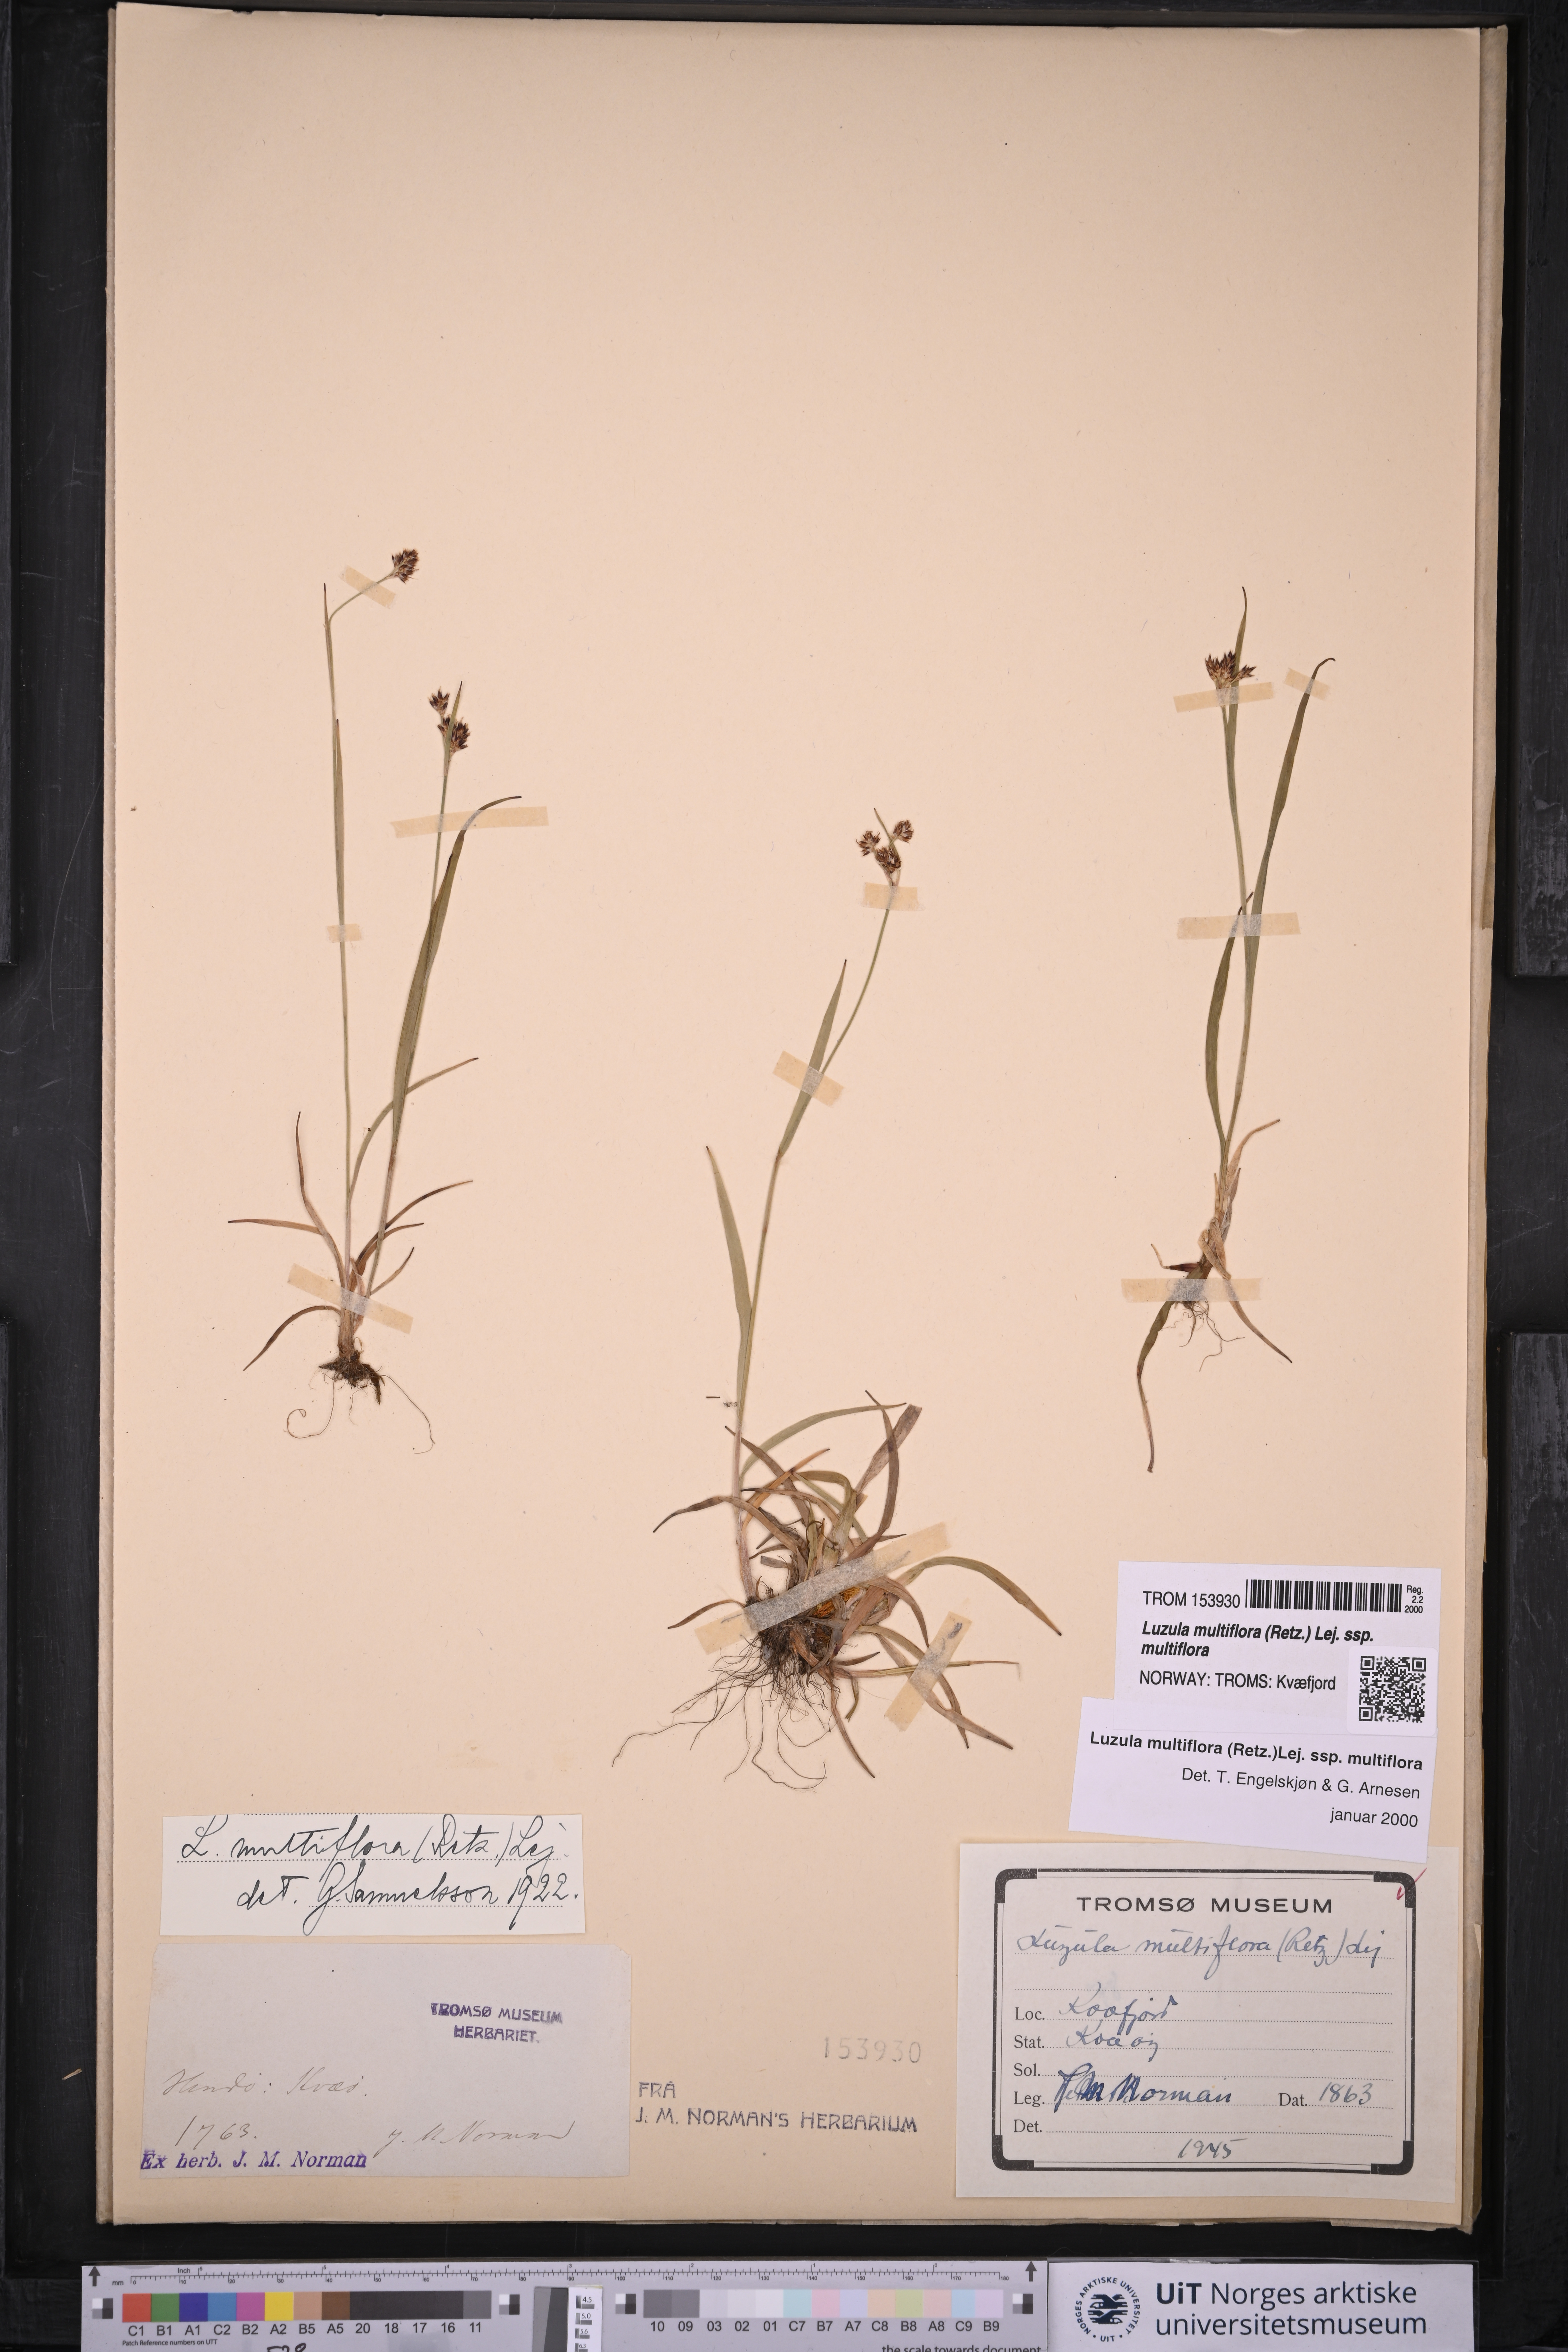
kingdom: Plantae
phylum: Tracheophyta
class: Liliopsida
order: Poales
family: Juncaceae
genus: Luzula
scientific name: Luzula multiflora
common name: Heath wood-rush
